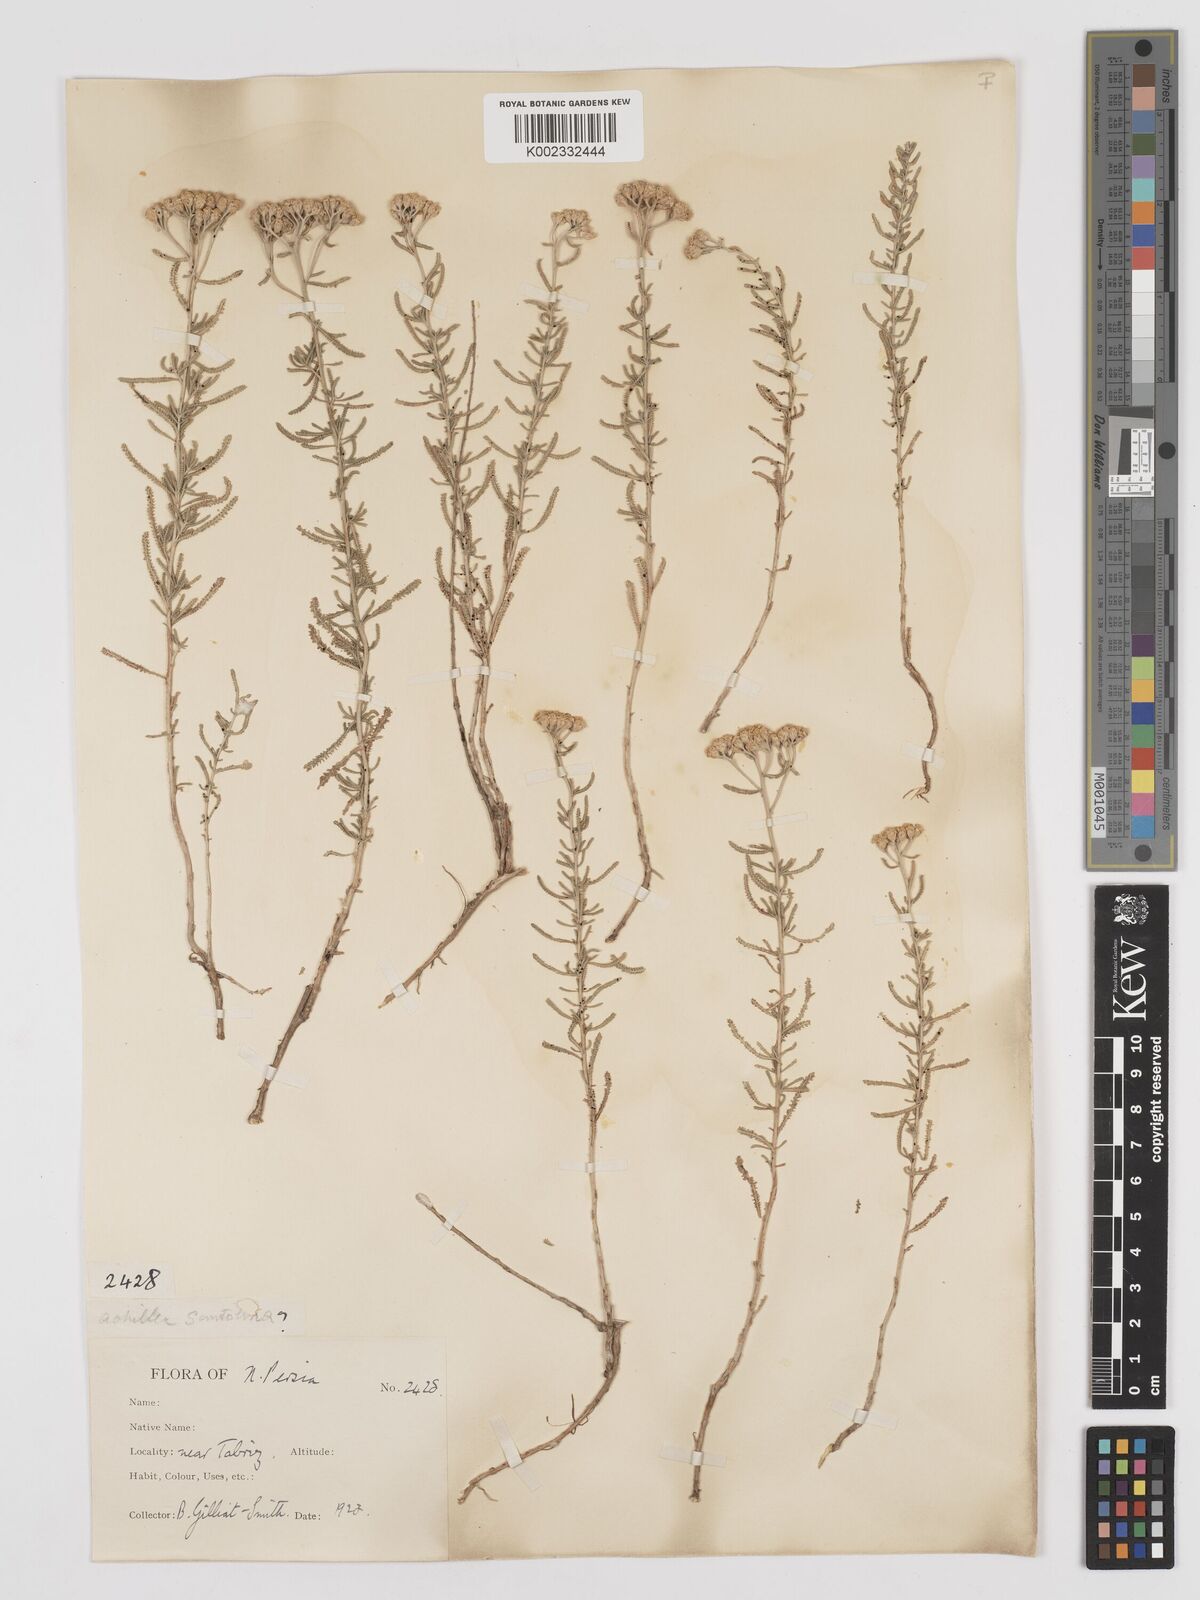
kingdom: Plantae
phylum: Tracheophyta
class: Magnoliopsida
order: Asterales
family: Asteraceae
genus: Achillea
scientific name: Achillea tenuifolia
